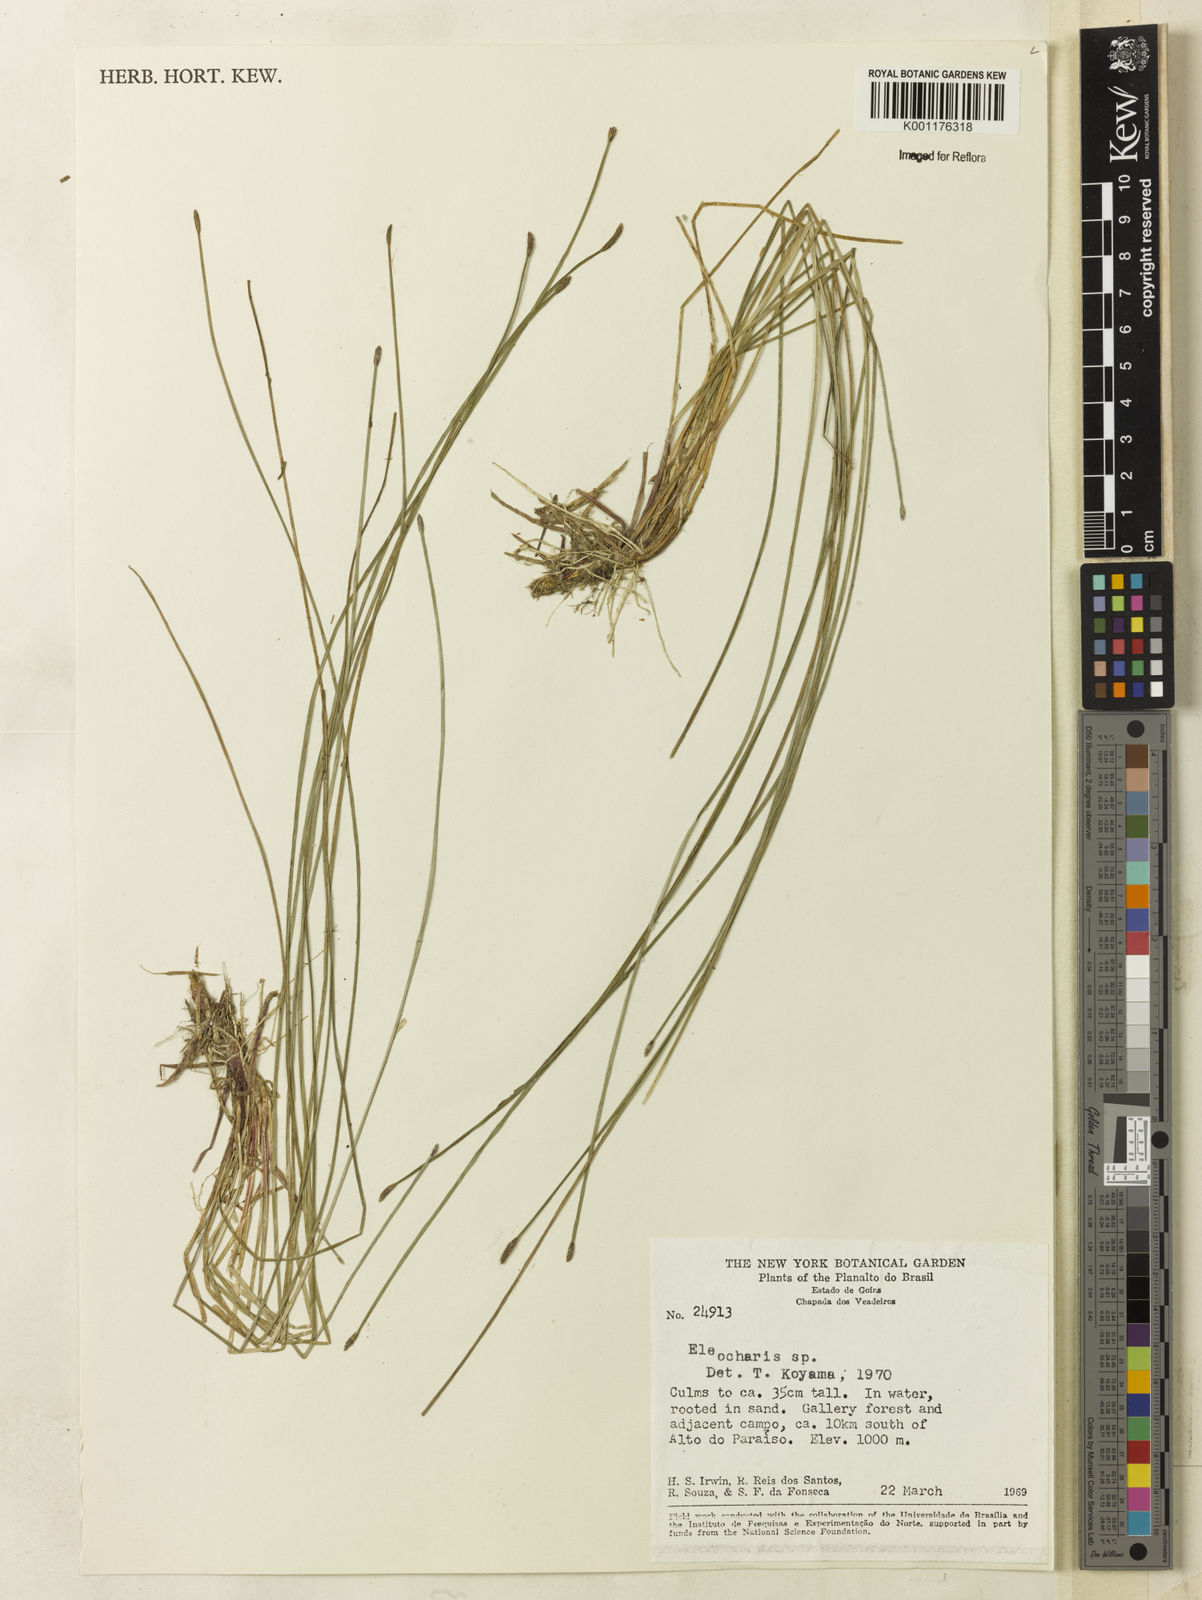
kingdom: Plantae
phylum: Tracheophyta
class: Liliopsida
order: Poales
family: Cyperaceae
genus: Eleocharis
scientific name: Eleocharis
